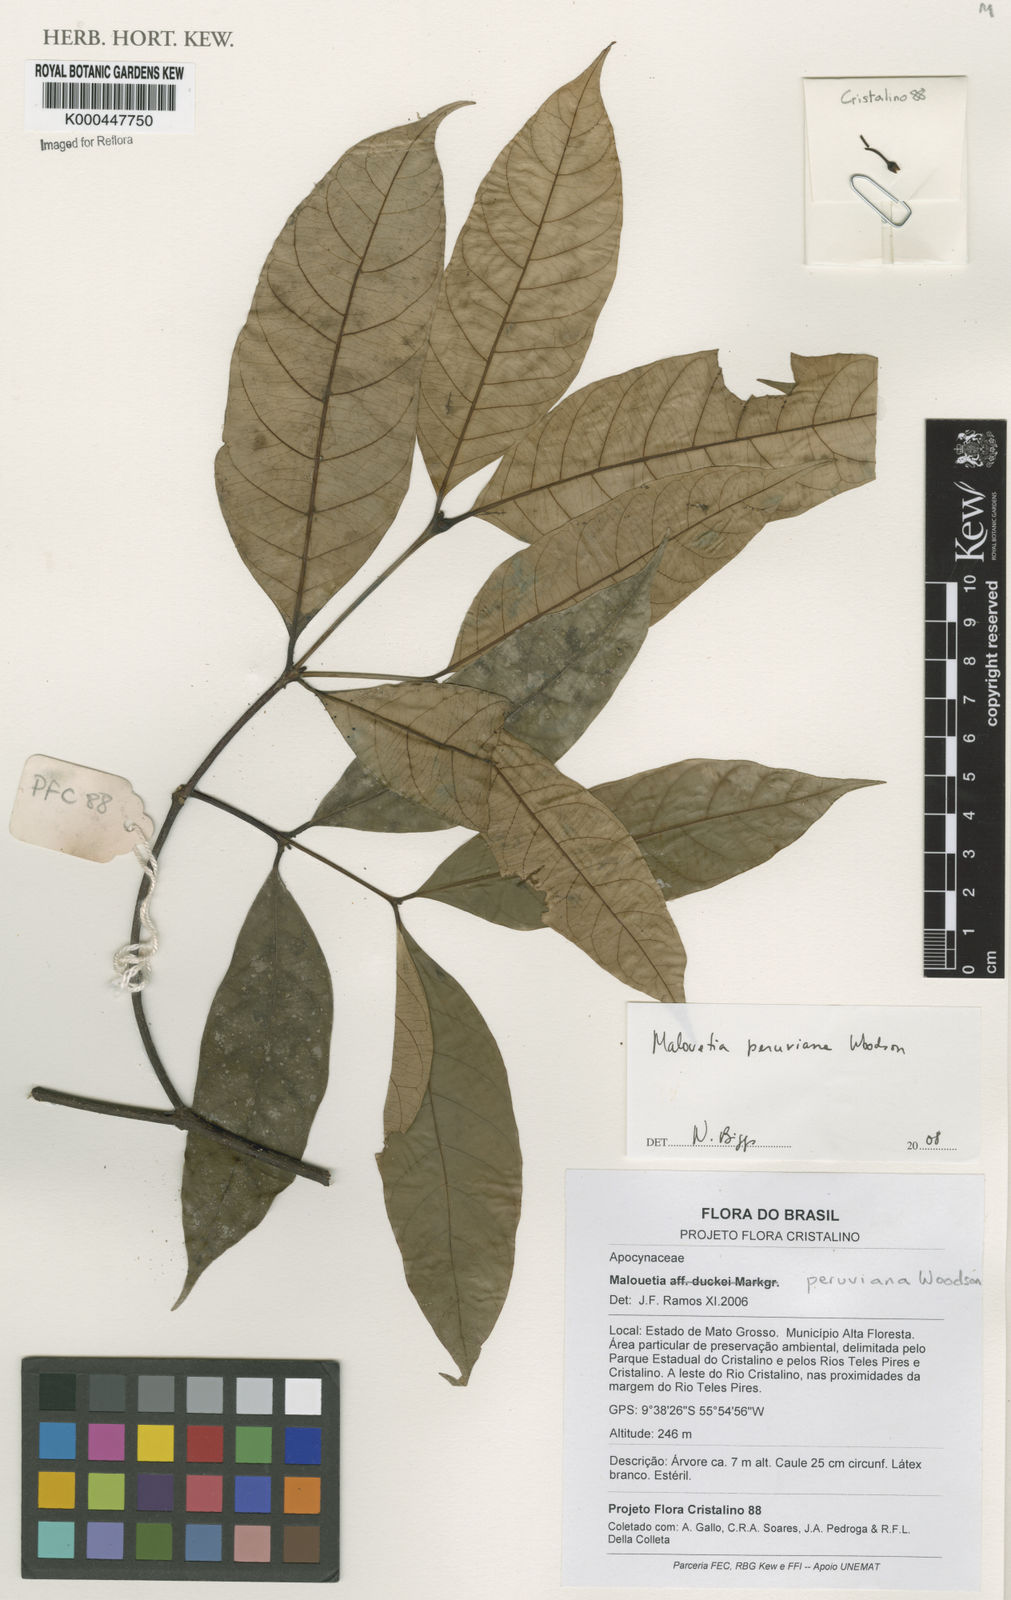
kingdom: Plantae
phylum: Tracheophyta
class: Magnoliopsida
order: Gentianales
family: Apocynaceae
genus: Malouetia
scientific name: Malouetia tamaquarina
